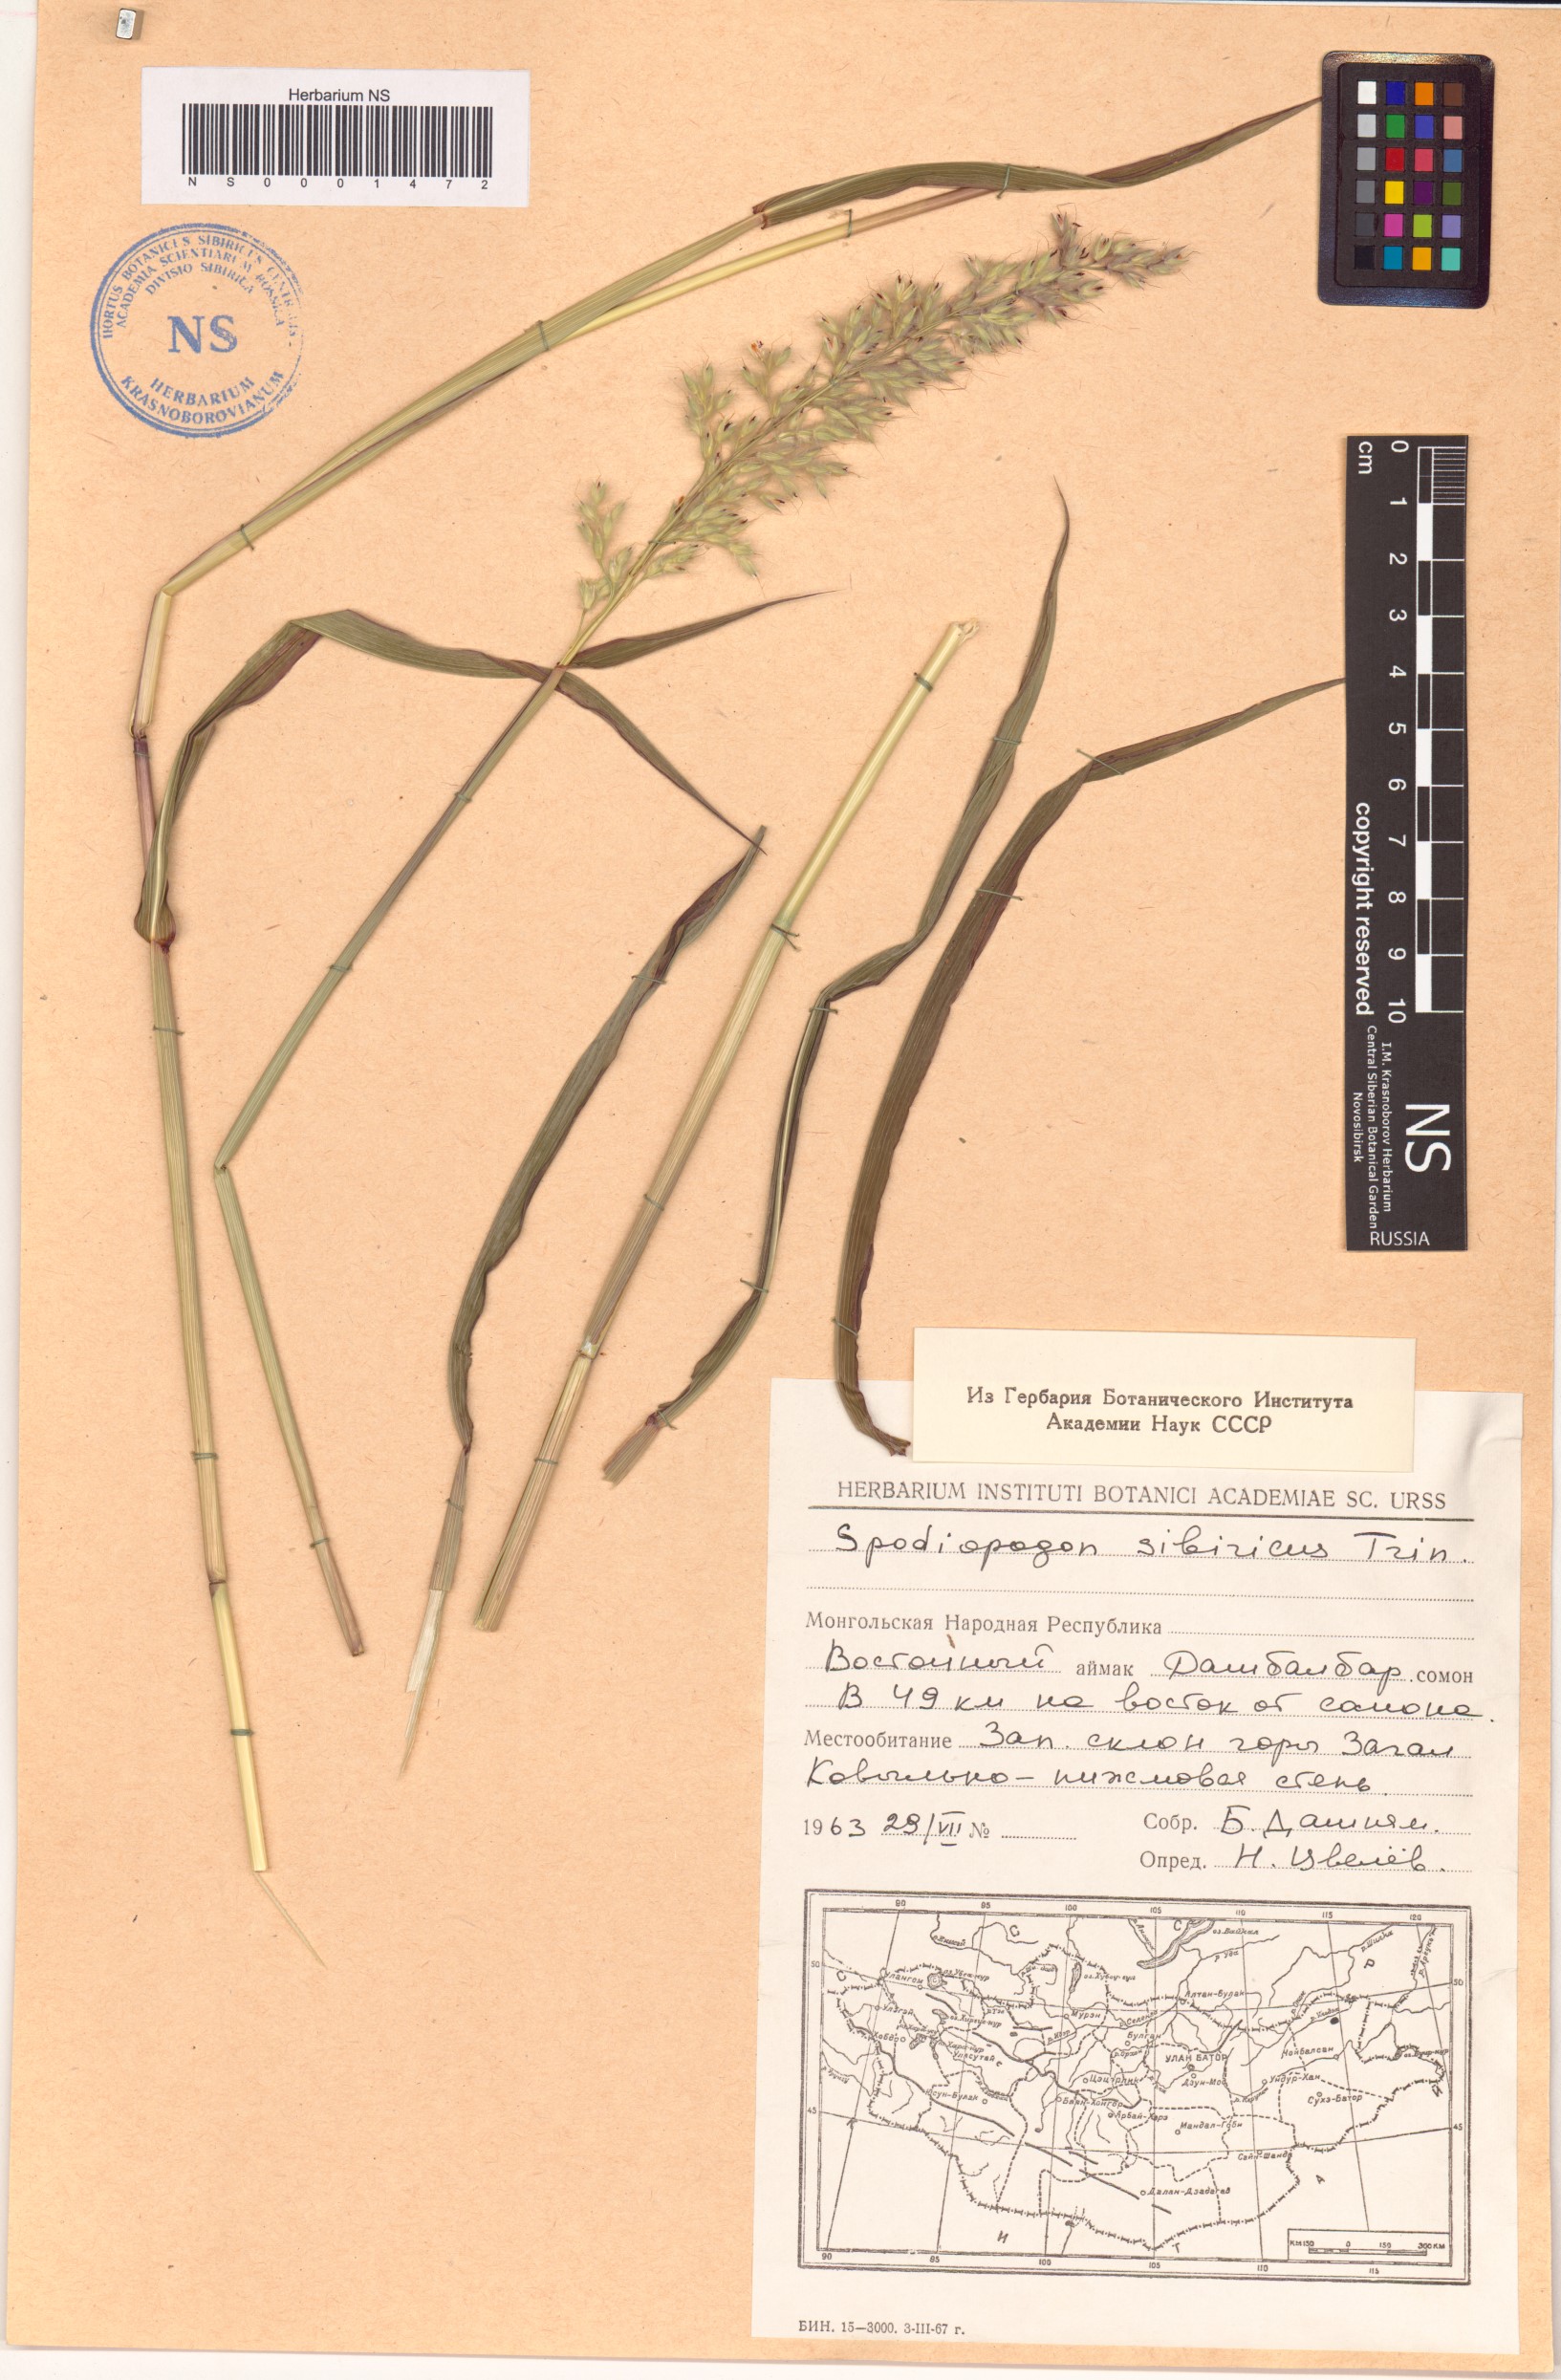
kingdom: Plantae
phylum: Tracheophyta
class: Liliopsida
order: Poales
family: Poaceae
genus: Spodiopogon
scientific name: Spodiopogon sibiricus
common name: Siberian graybeard
